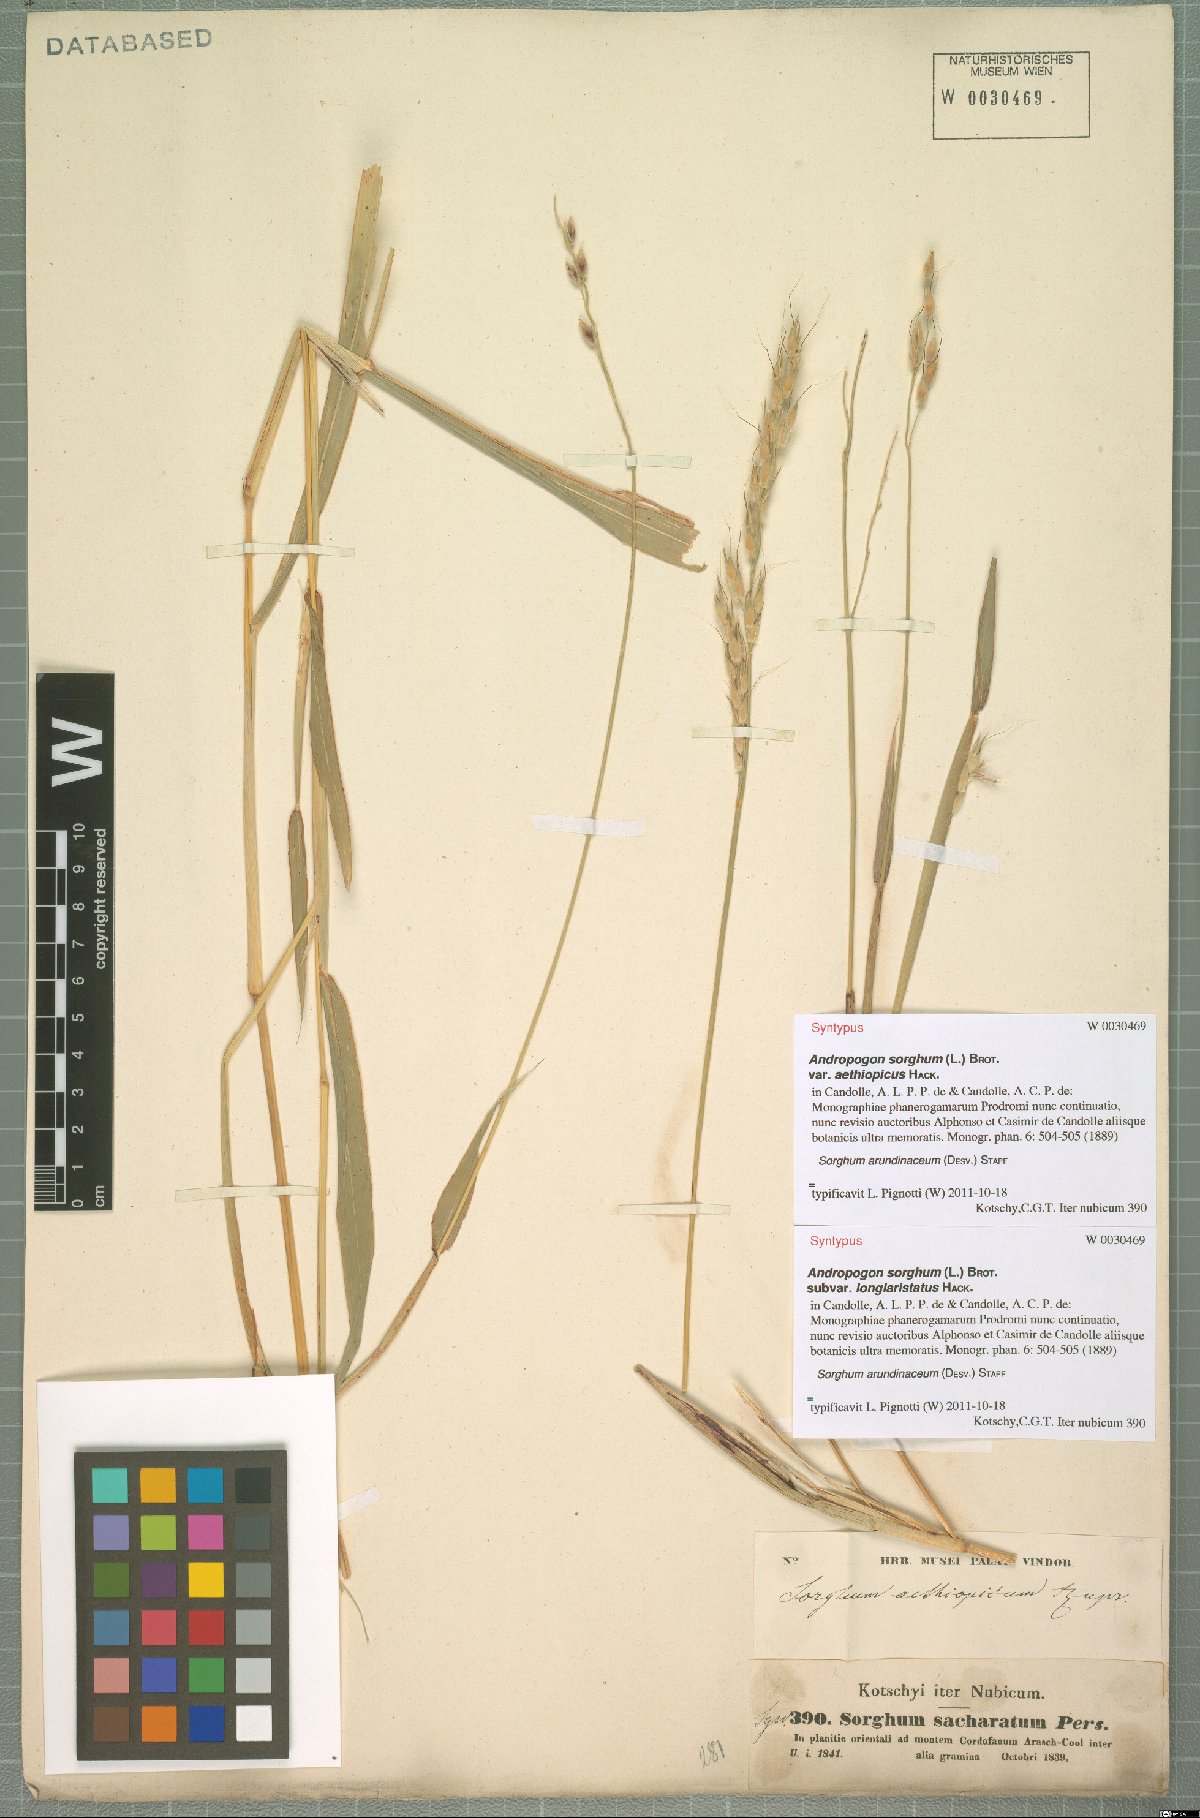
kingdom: Plantae
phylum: Tracheophyta
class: Liliopsida
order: Poales
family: Poaceae
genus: Sorghum
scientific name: Sorghum arundinaceum
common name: Sorghum
